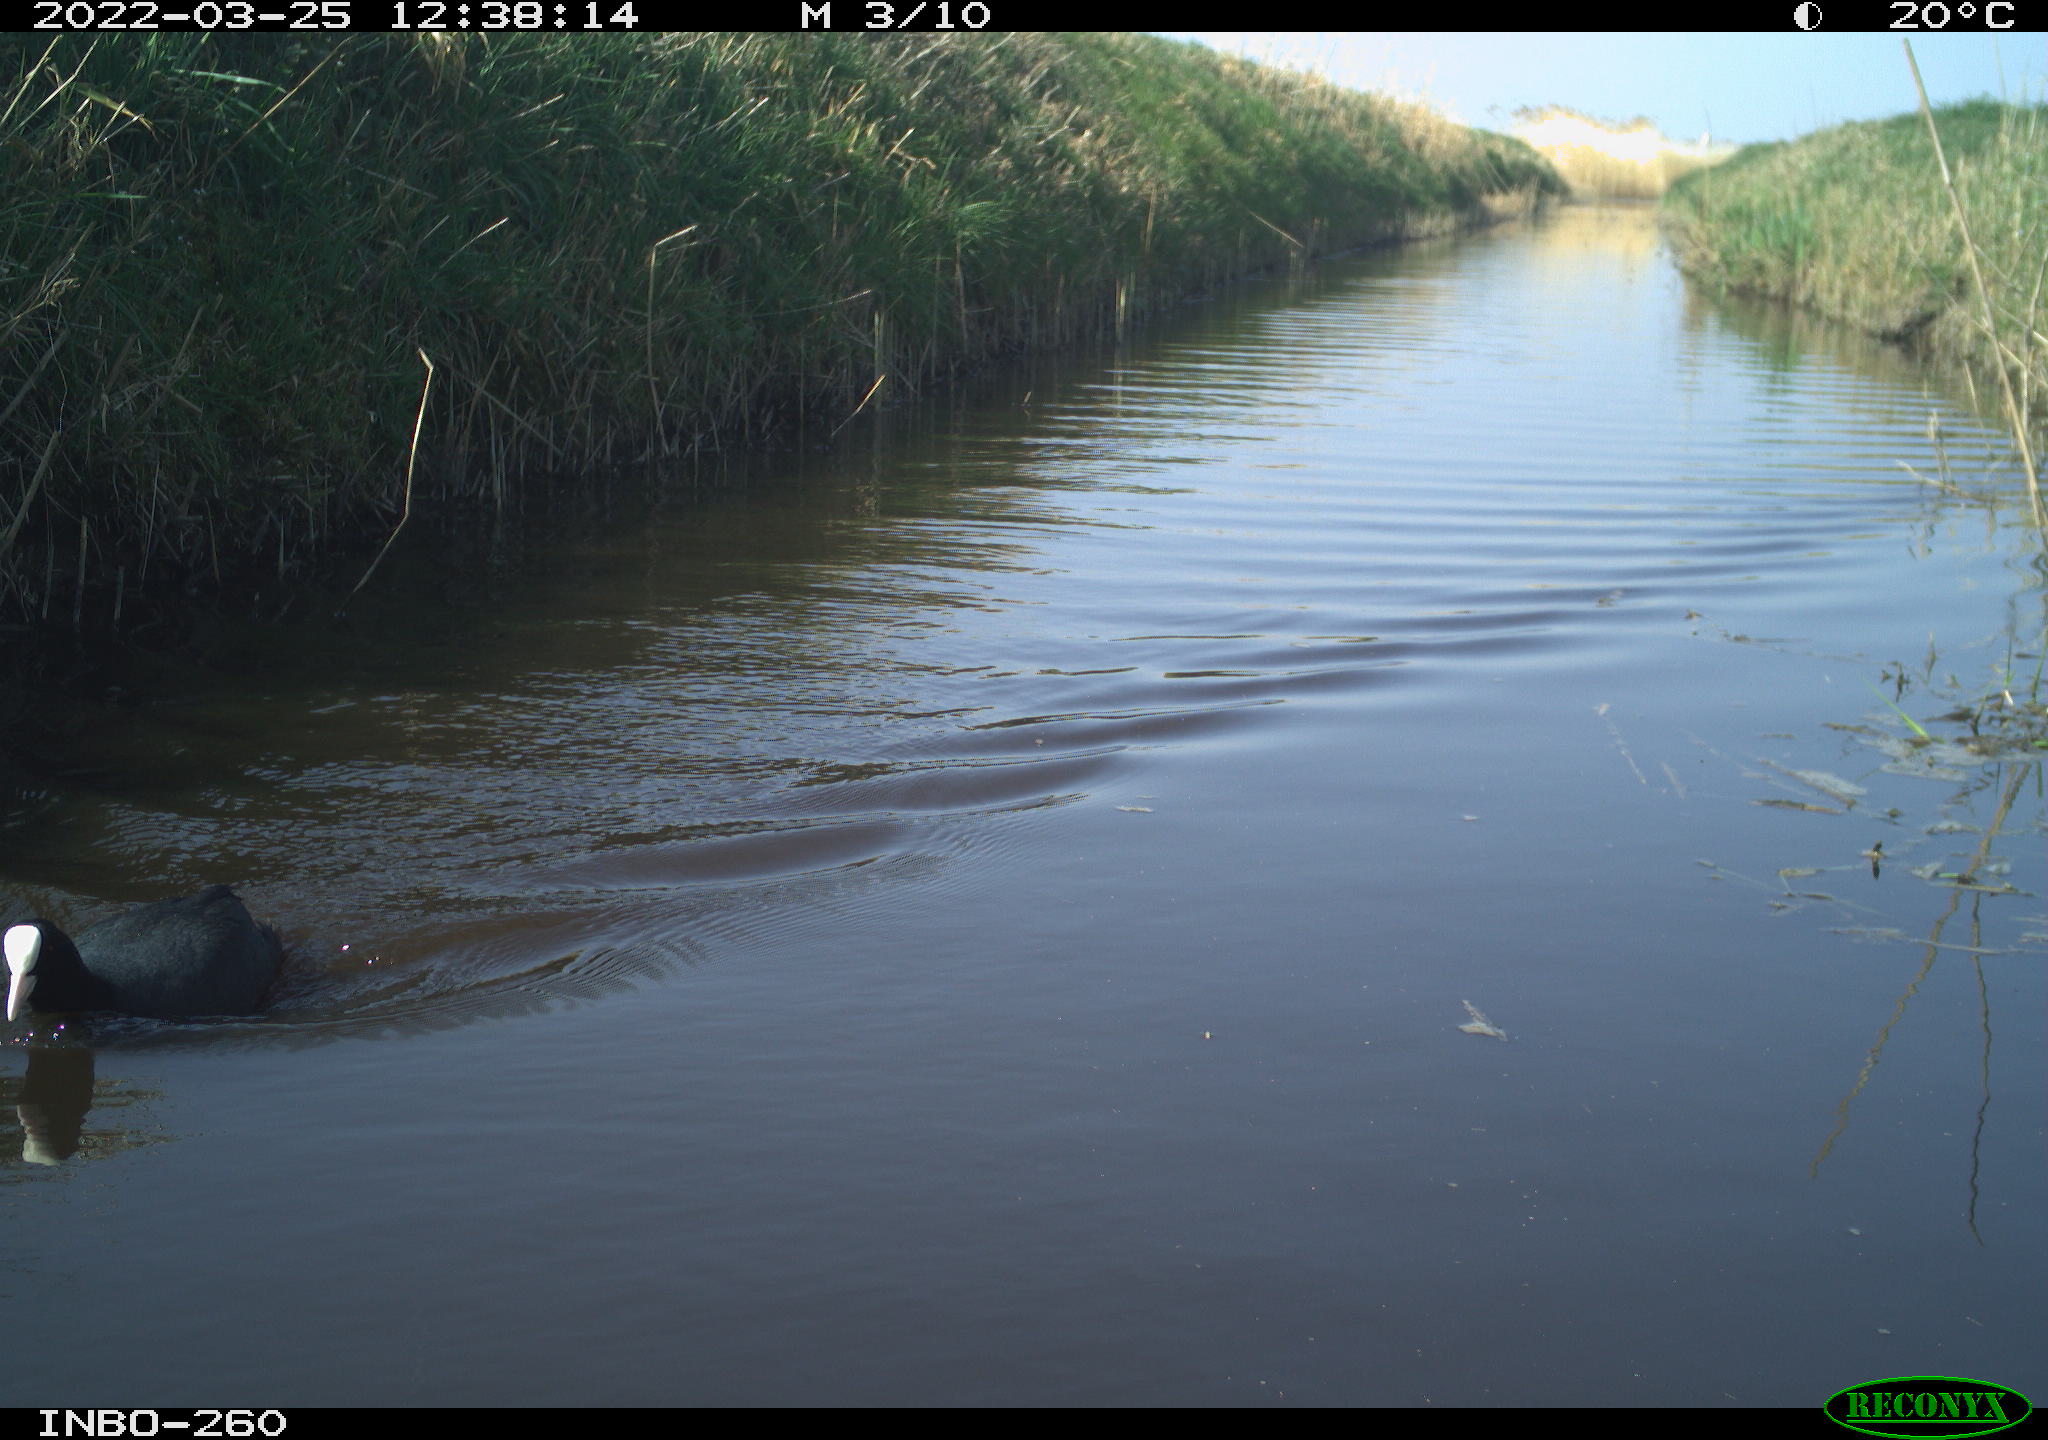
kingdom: Animalia
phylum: Chordata
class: Aves
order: Gruiformes
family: Rallidae
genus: Fulica
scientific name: Fulica atra
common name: Eurasian coot
